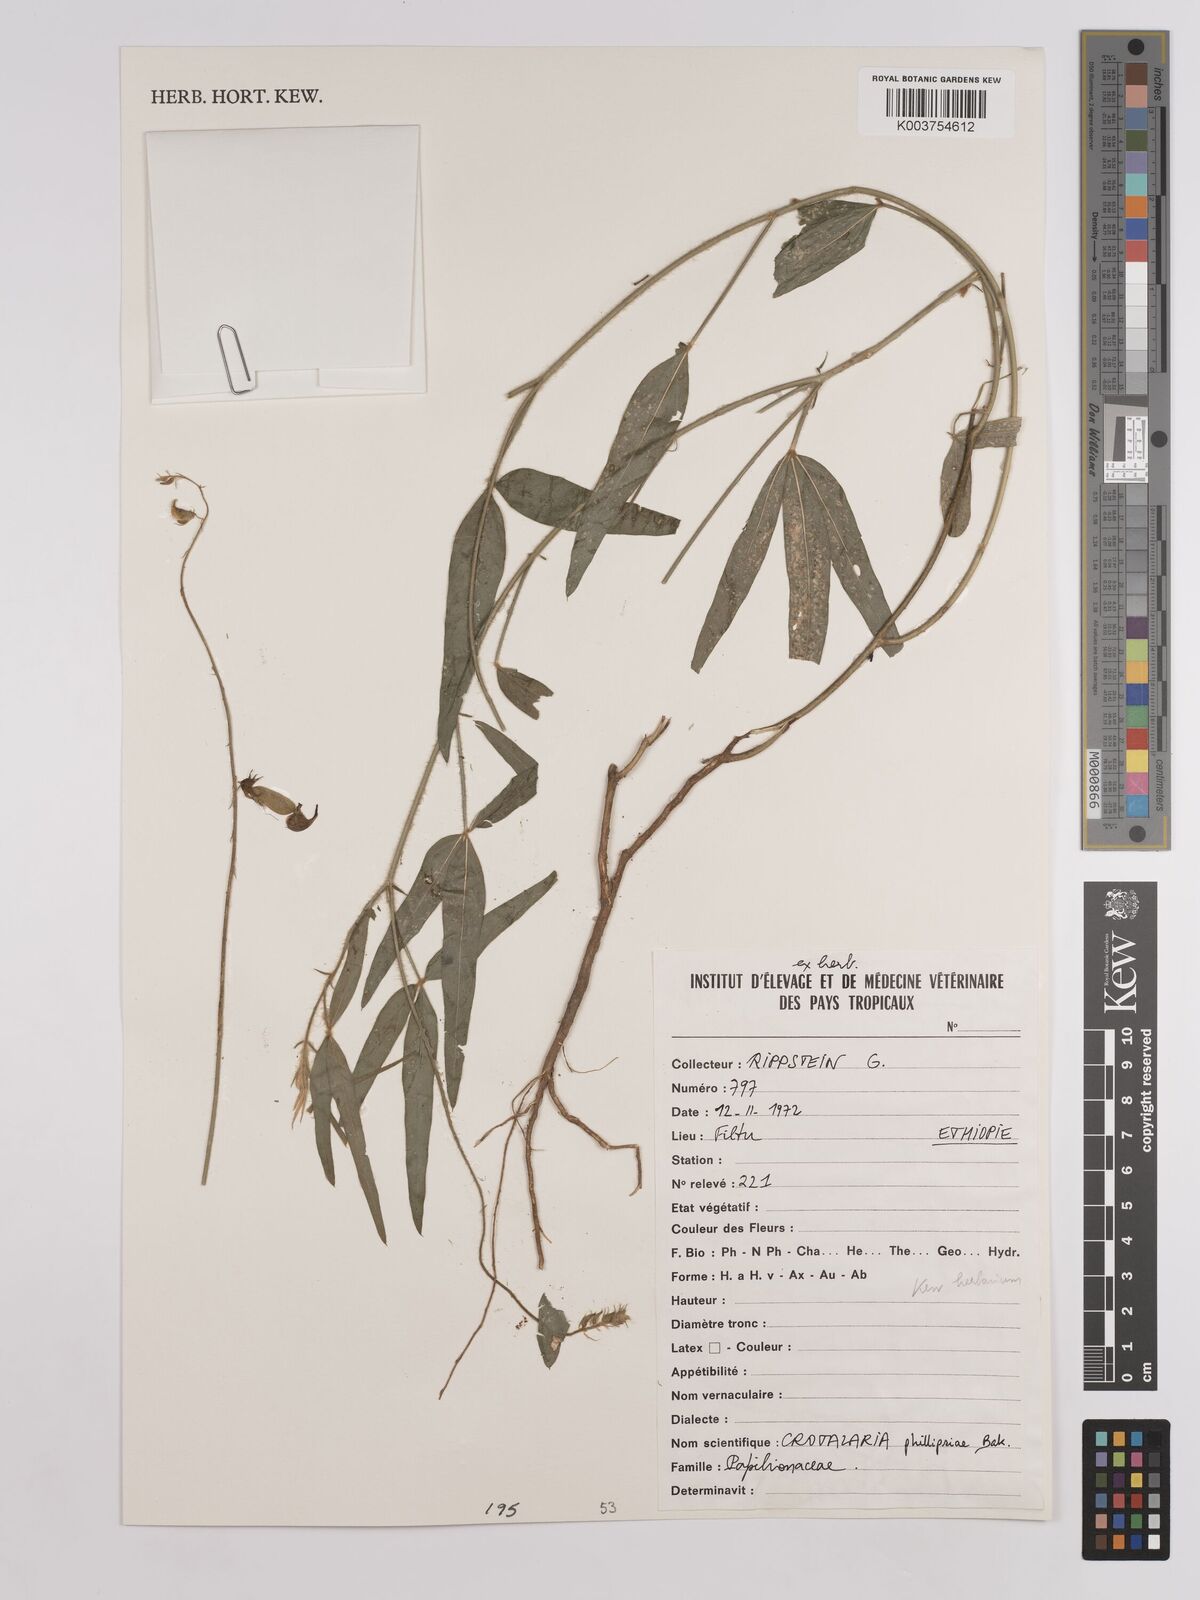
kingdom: Plantae
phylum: Tracheophyta
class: Magnoliopsida
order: Fabales
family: Fabaceae
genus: Crotalaria
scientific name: Crotalaria phillipsiae
